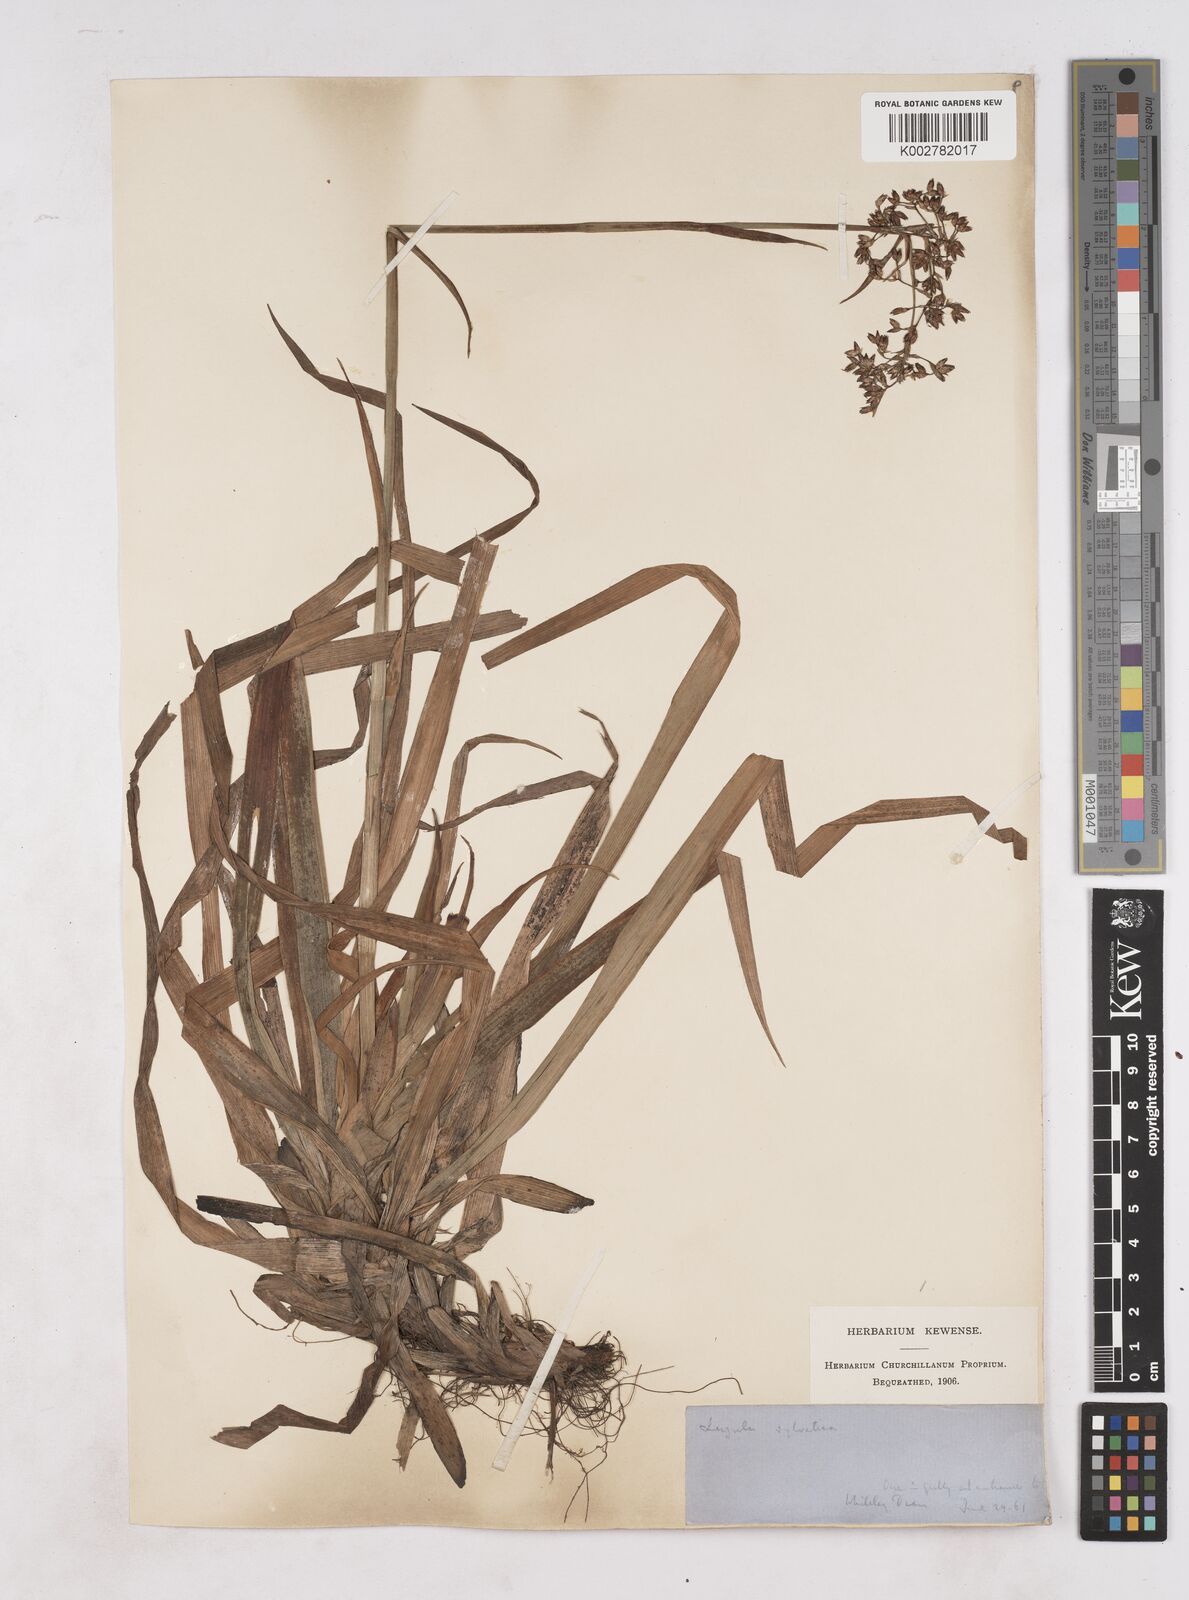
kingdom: Plantae
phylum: Tracheophyta
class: Liliopsida
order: Poales
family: Juncaceae
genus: Luzula
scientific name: Luzula sylvatica
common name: Great wood-rush
